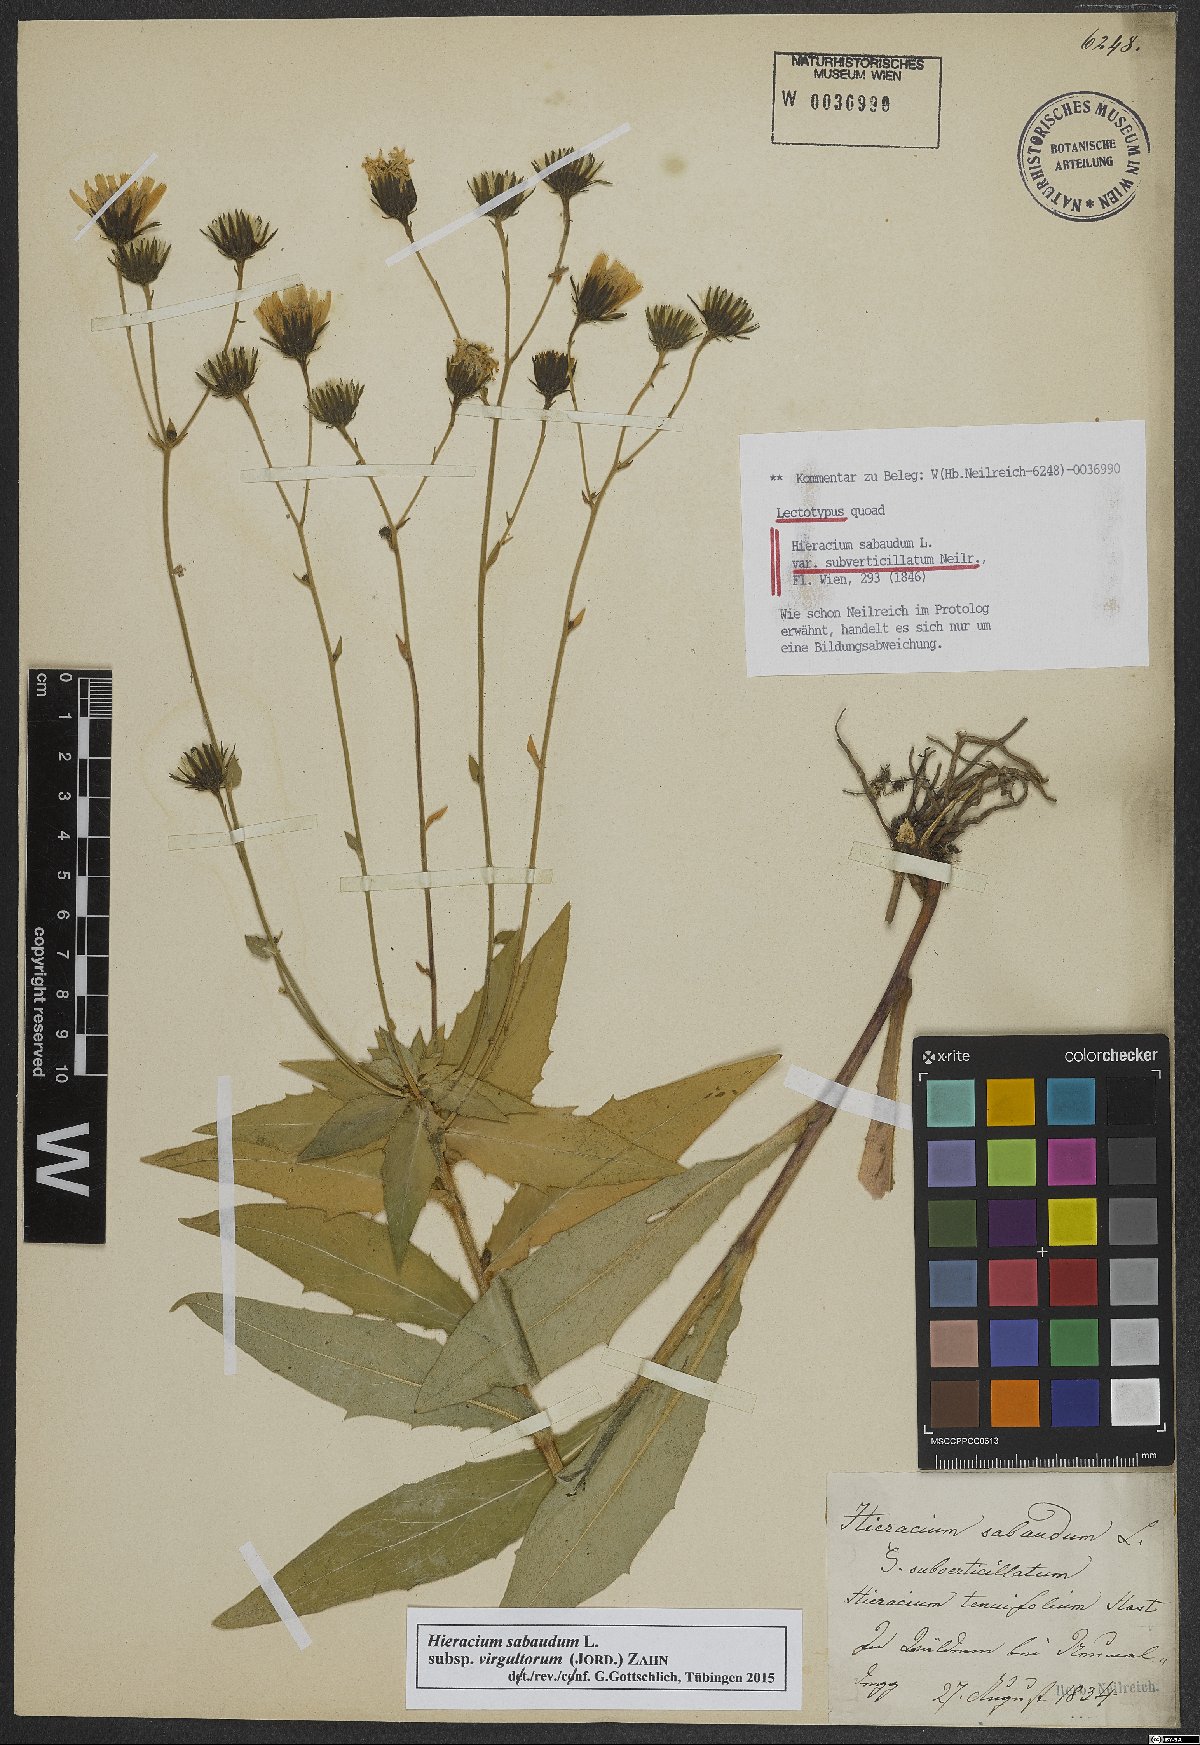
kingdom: Plantae
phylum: Tracheophyta
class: Magnoliopsida
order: Asterales
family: Asteraceae
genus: Hieracium
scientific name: Hieracium sabaudum
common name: New england hawkweed
